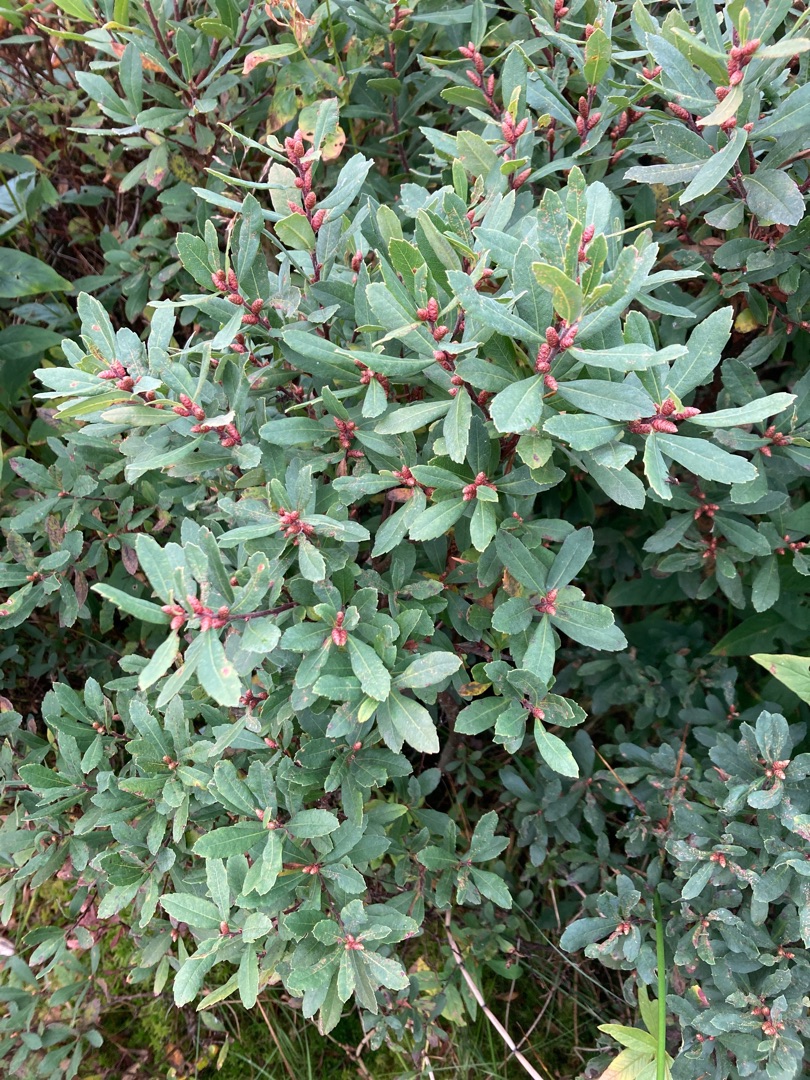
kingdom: Plantae
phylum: Tracheophyta
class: Magnoliopsida
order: Fagales
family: Myricaceae
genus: Myrica
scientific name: Myrica gale
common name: Pors
